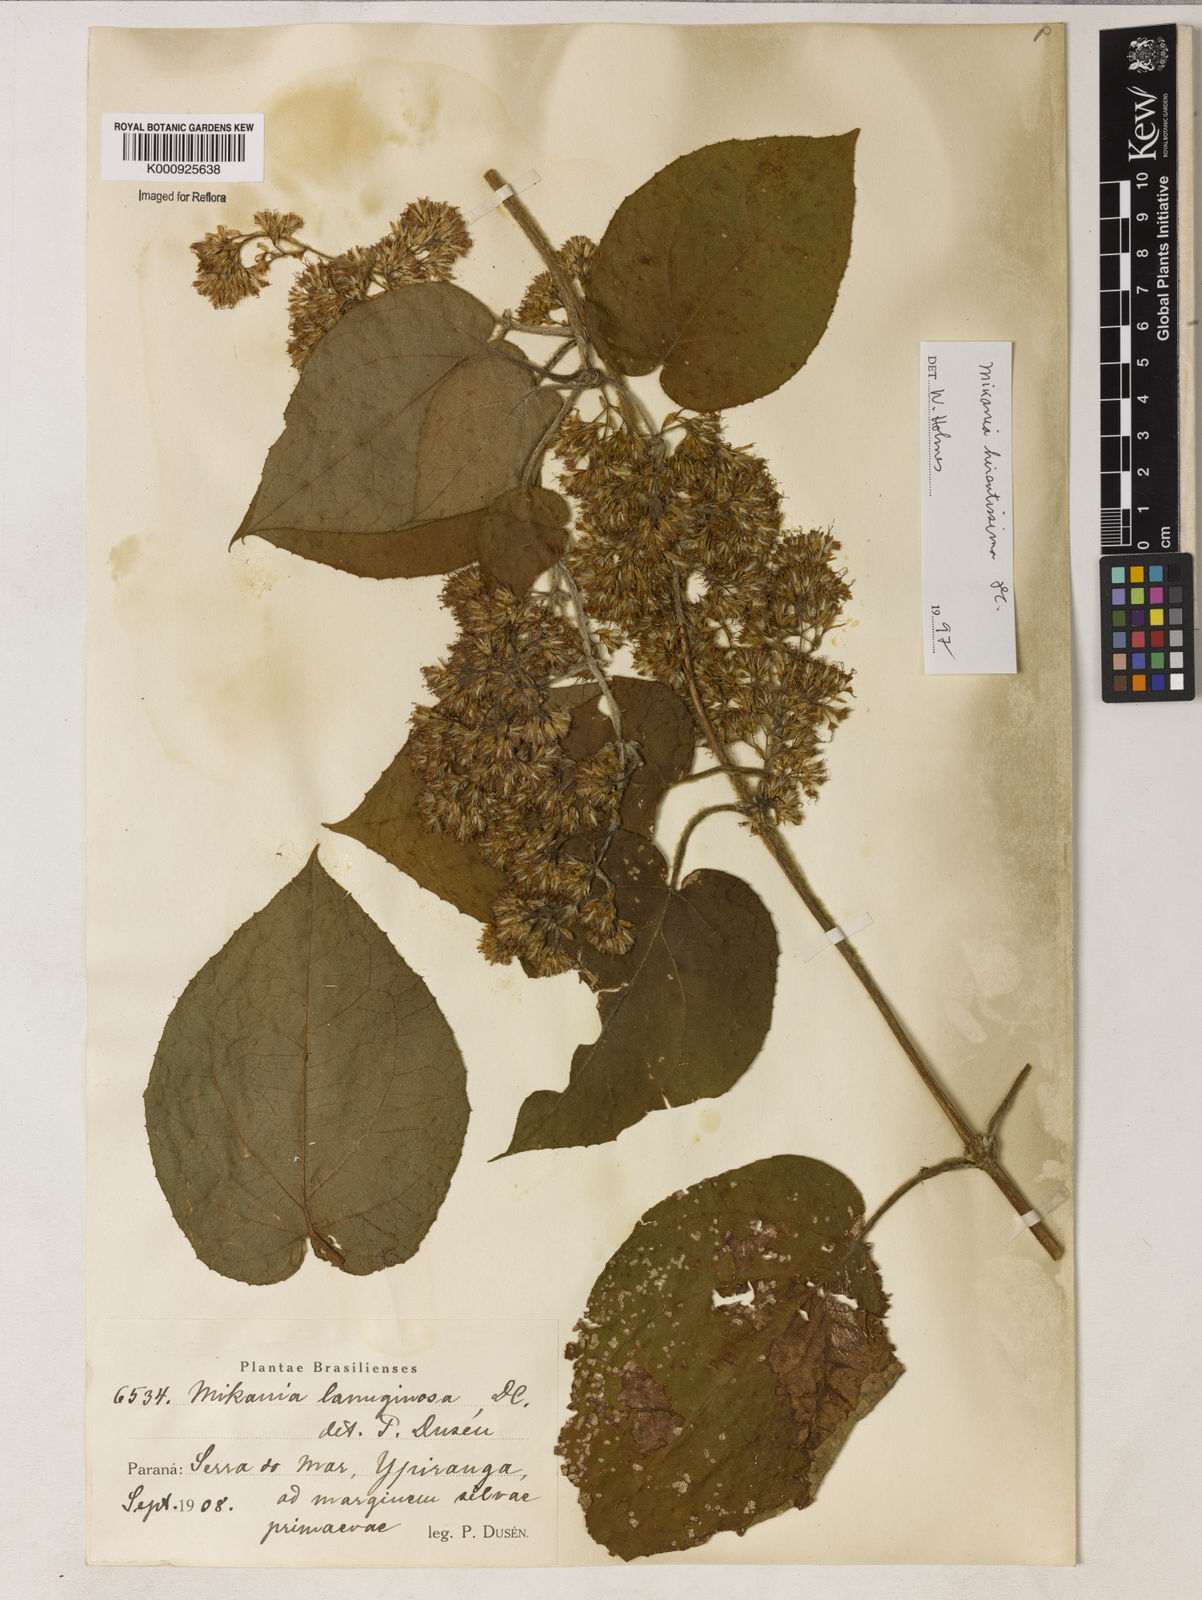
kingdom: Plantae
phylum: Tracheophyta
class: Magnoliopsida
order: Asterales
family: Asteraceae
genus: Mikania
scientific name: Mikania laevigata
